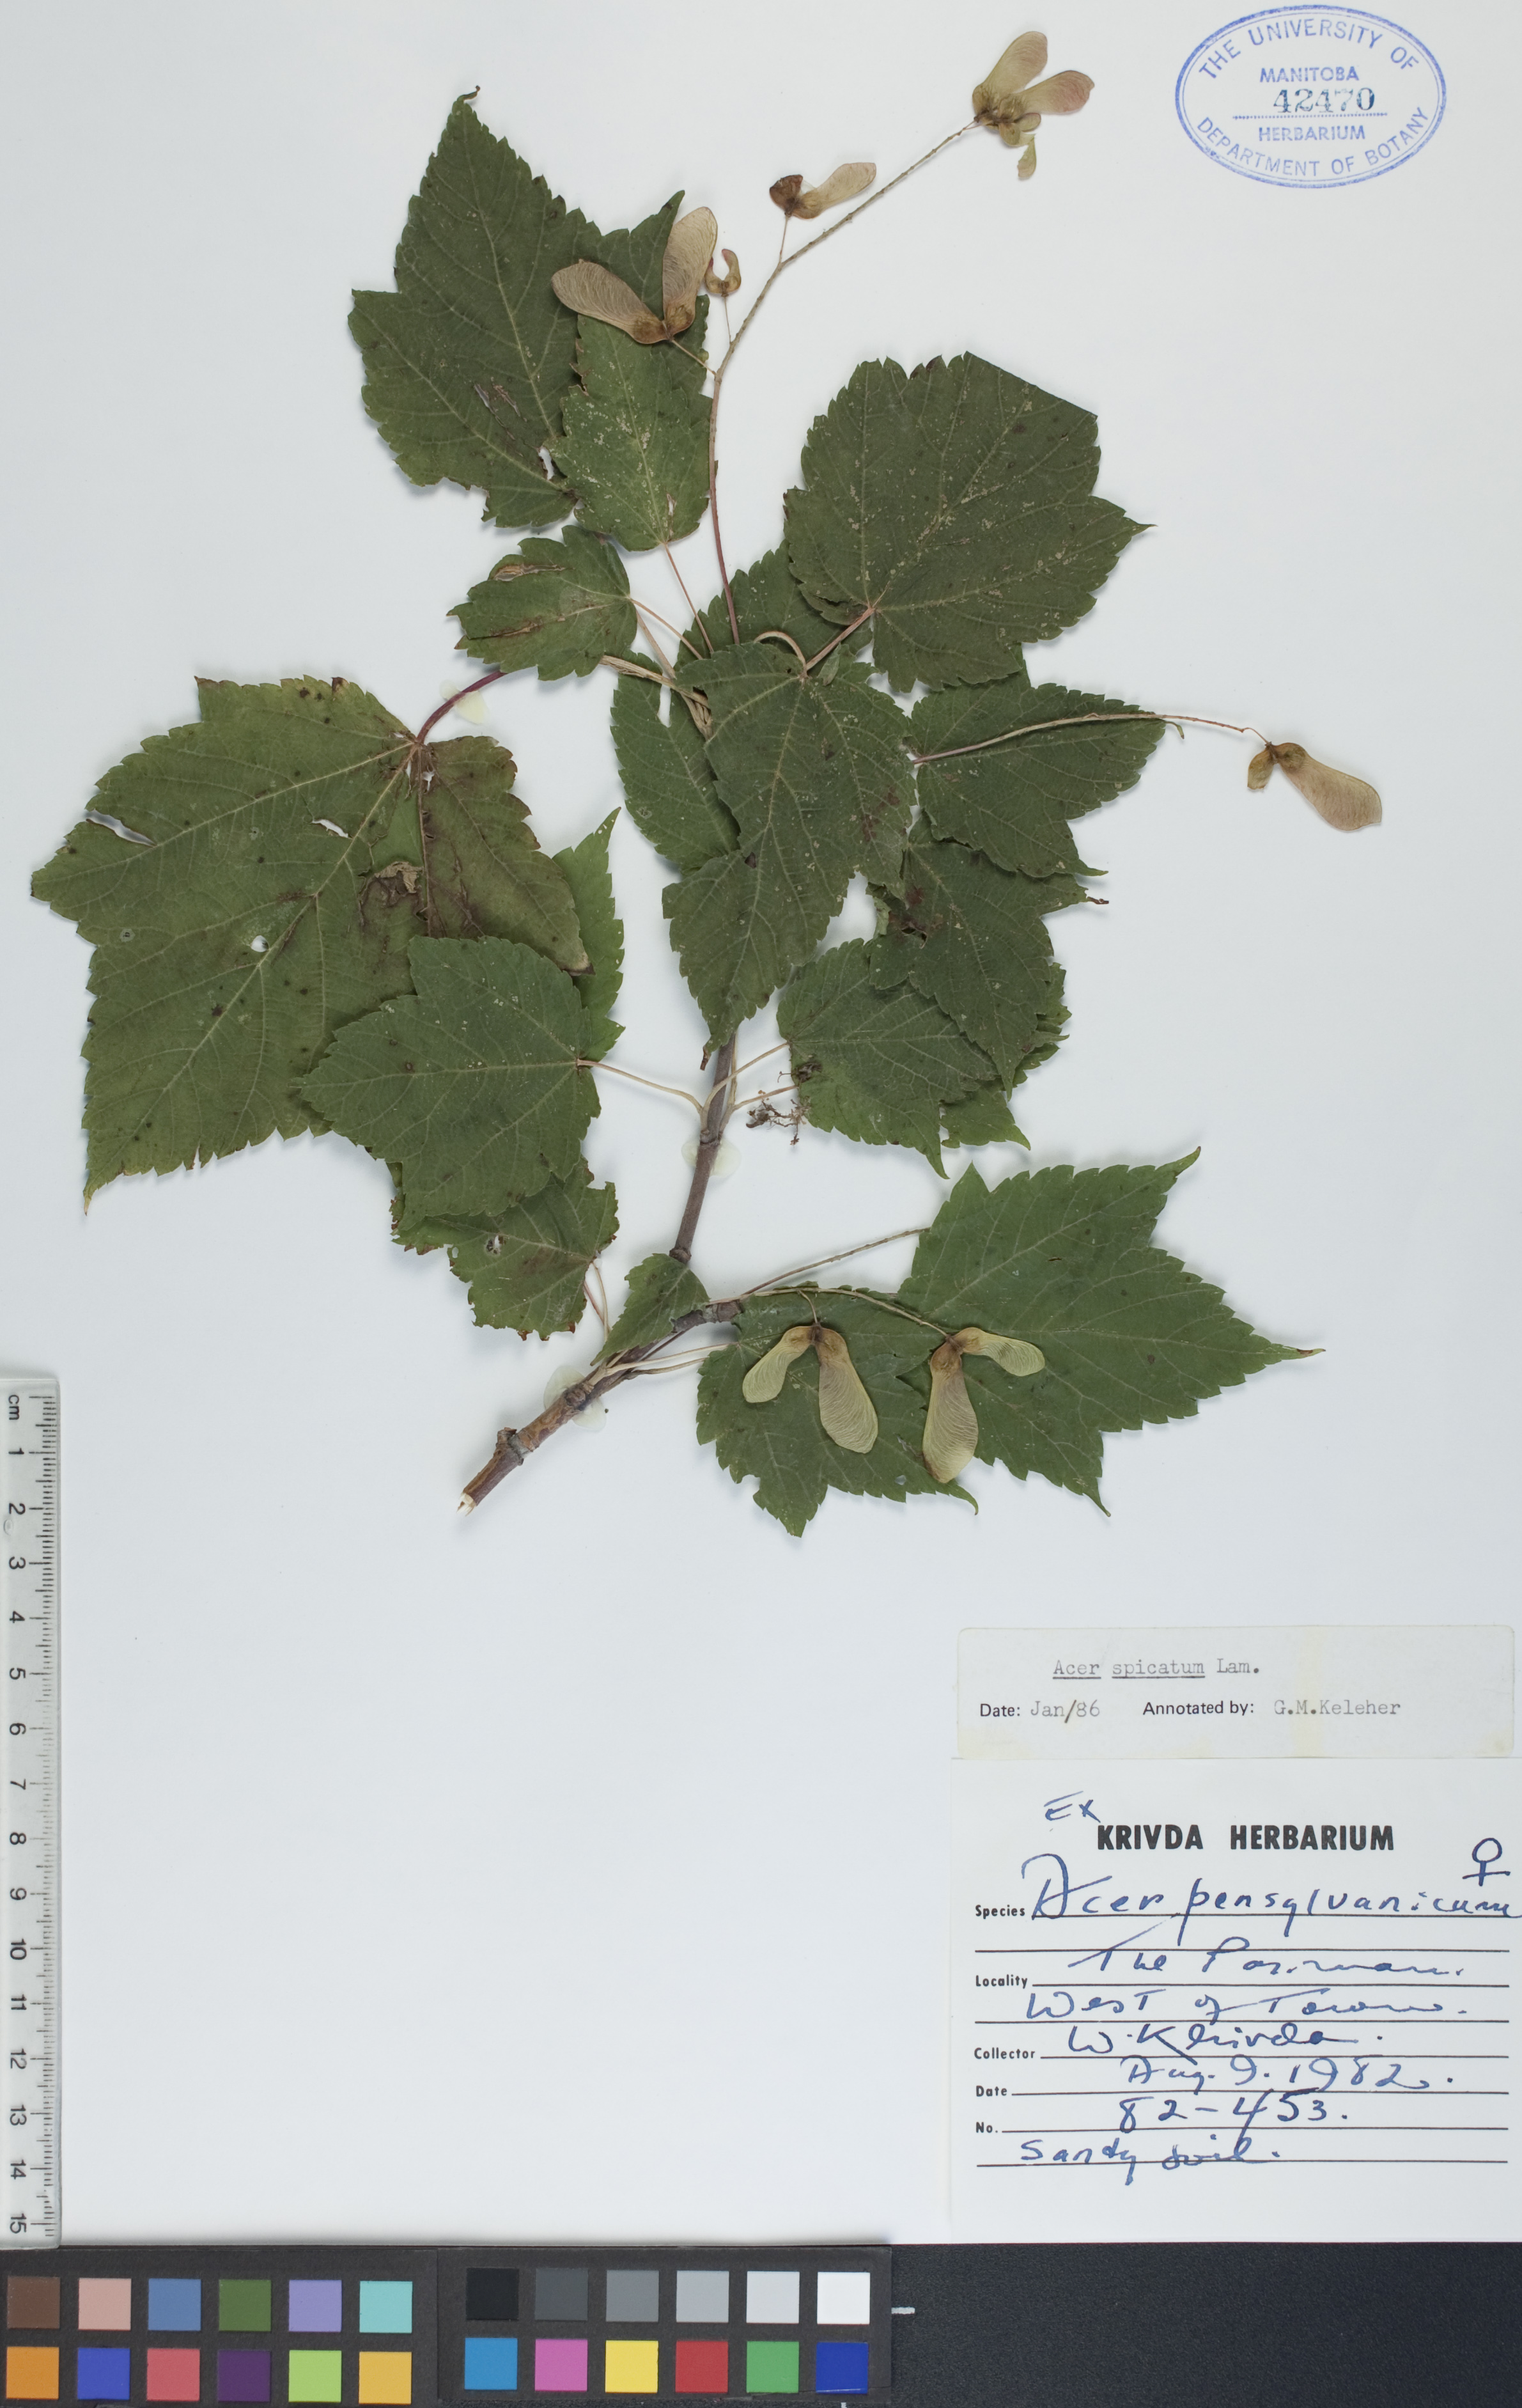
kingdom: Plantae
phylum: Tracheophyta
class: Magnoliopsida
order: Sapindales
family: Sapindaceae
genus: Acer
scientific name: Acer spicatum
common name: Mountain maple
